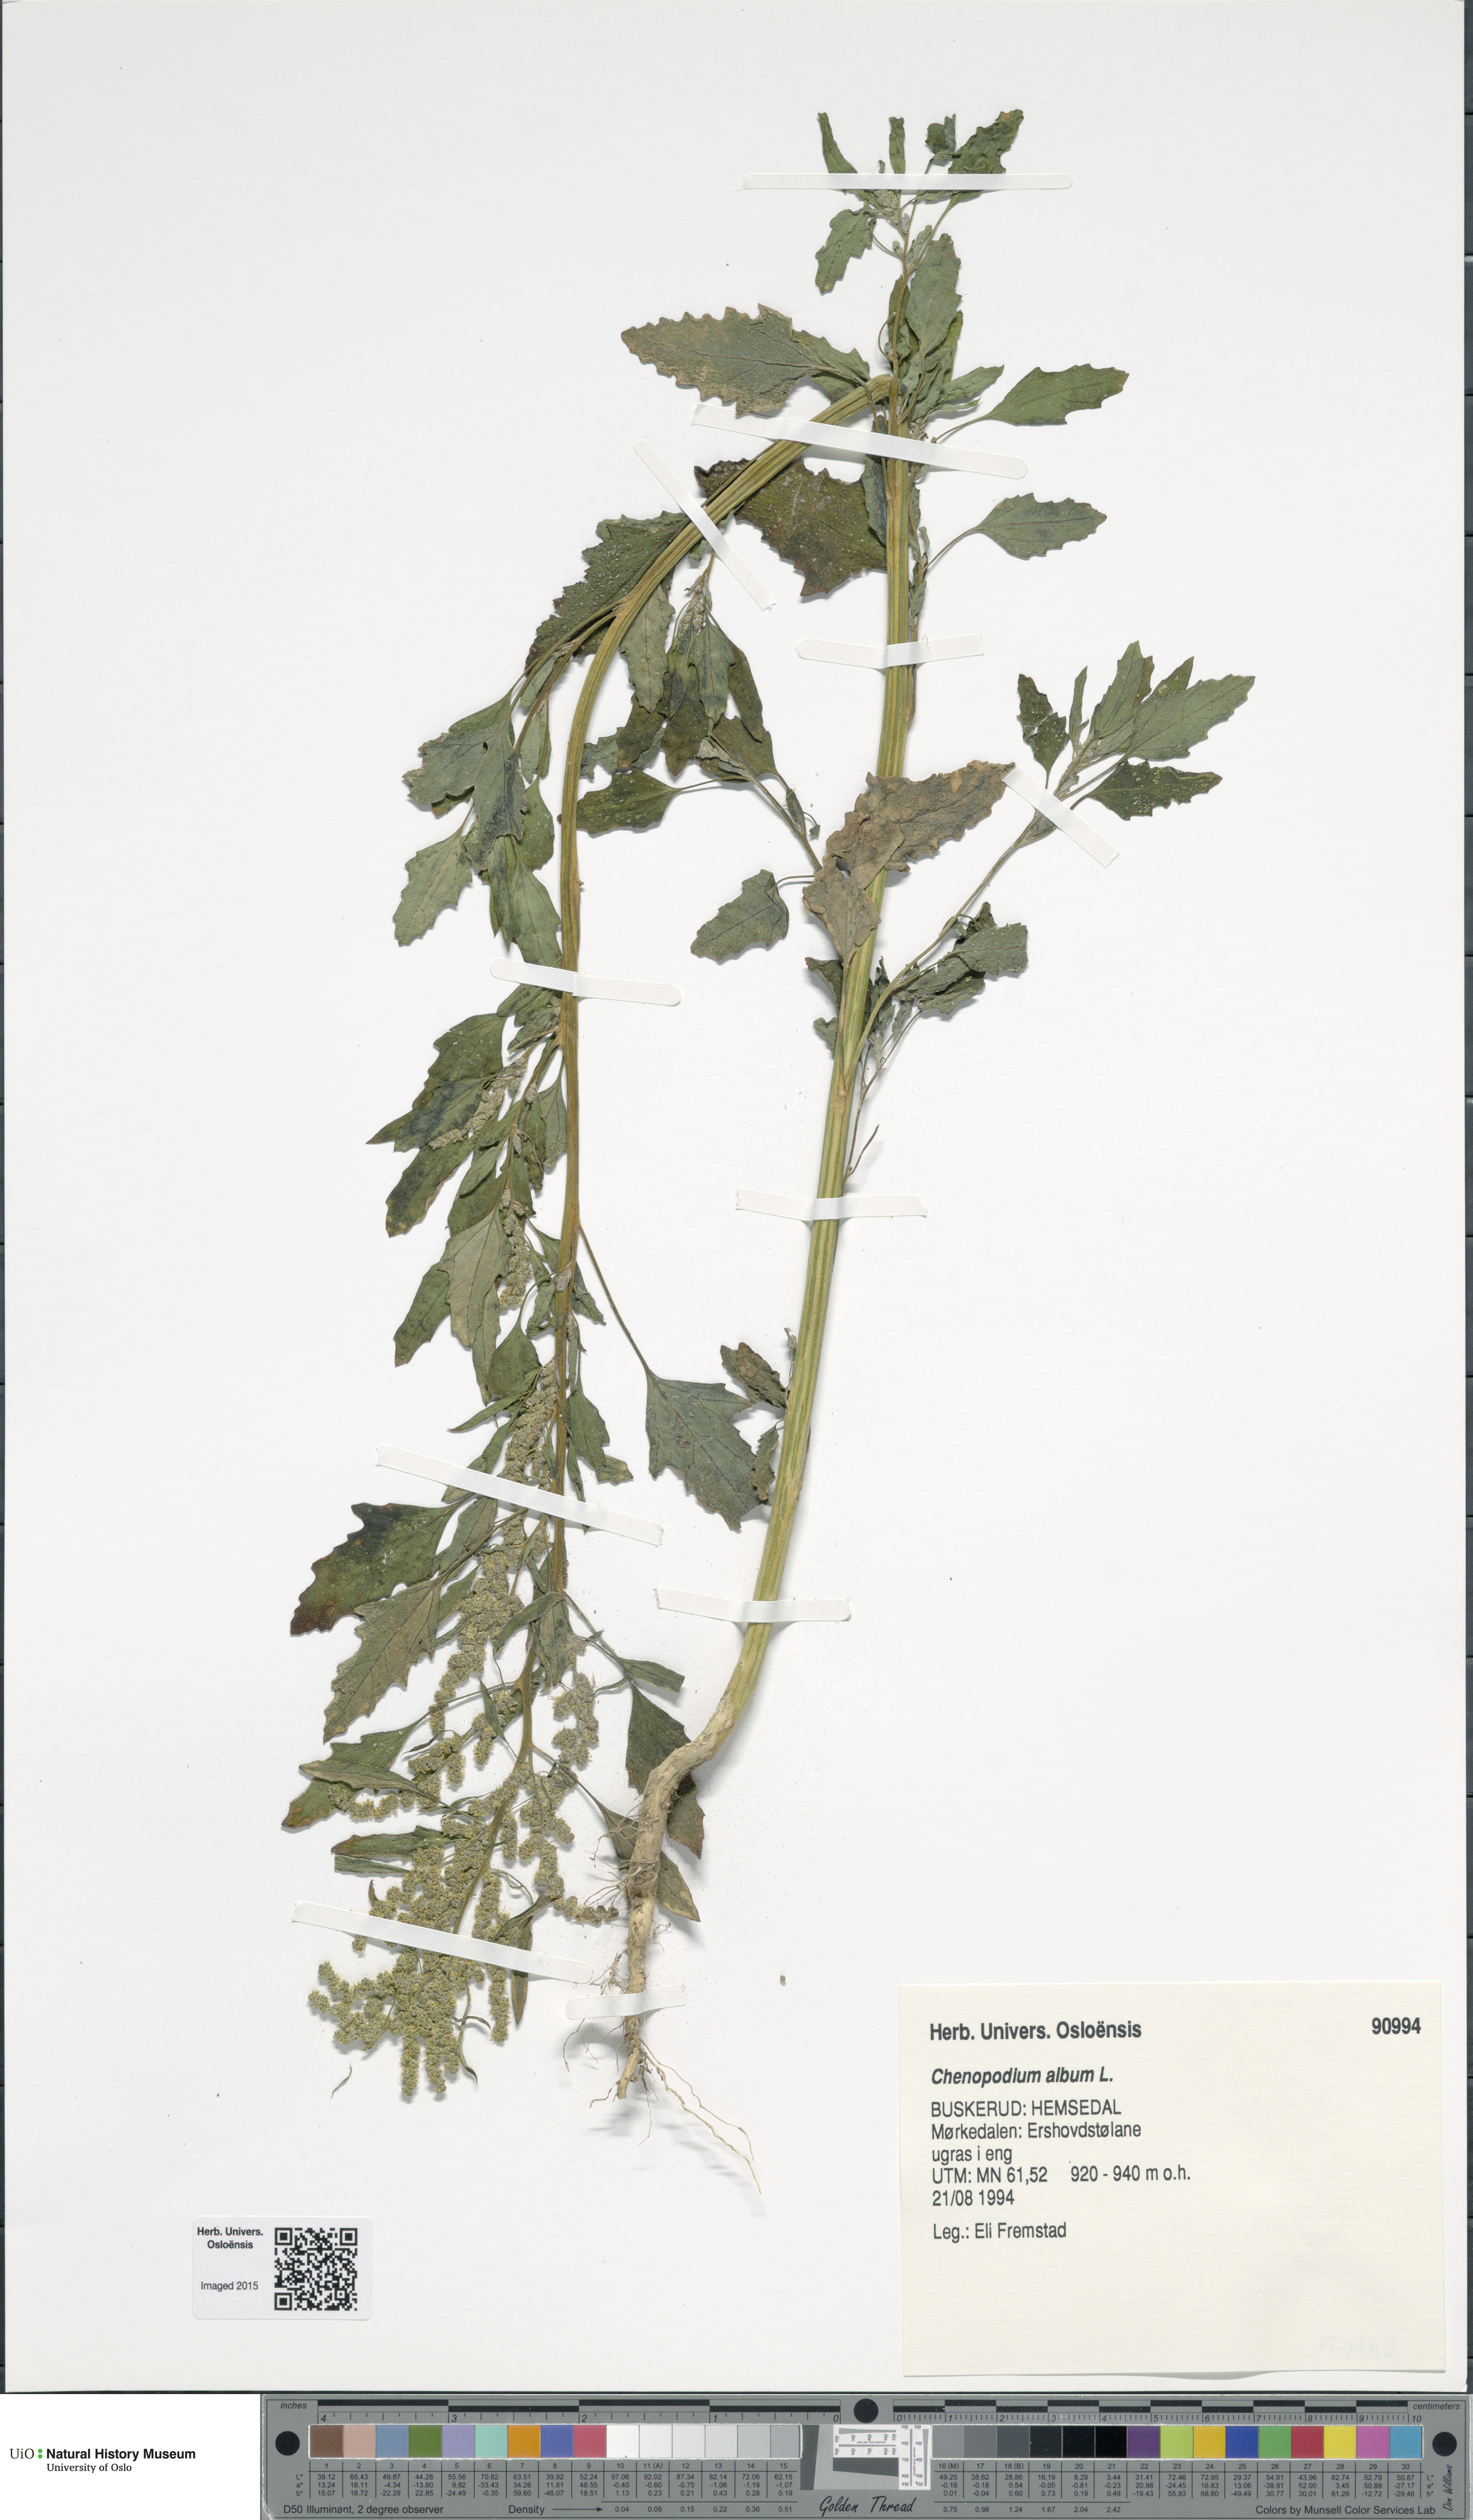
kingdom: Plantae
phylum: Tracheophyta
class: Magnoliopsida
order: Caryophyllales
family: Amaranthaceae
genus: Chenopodium
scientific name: Chenopodium album
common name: Fat-hen
